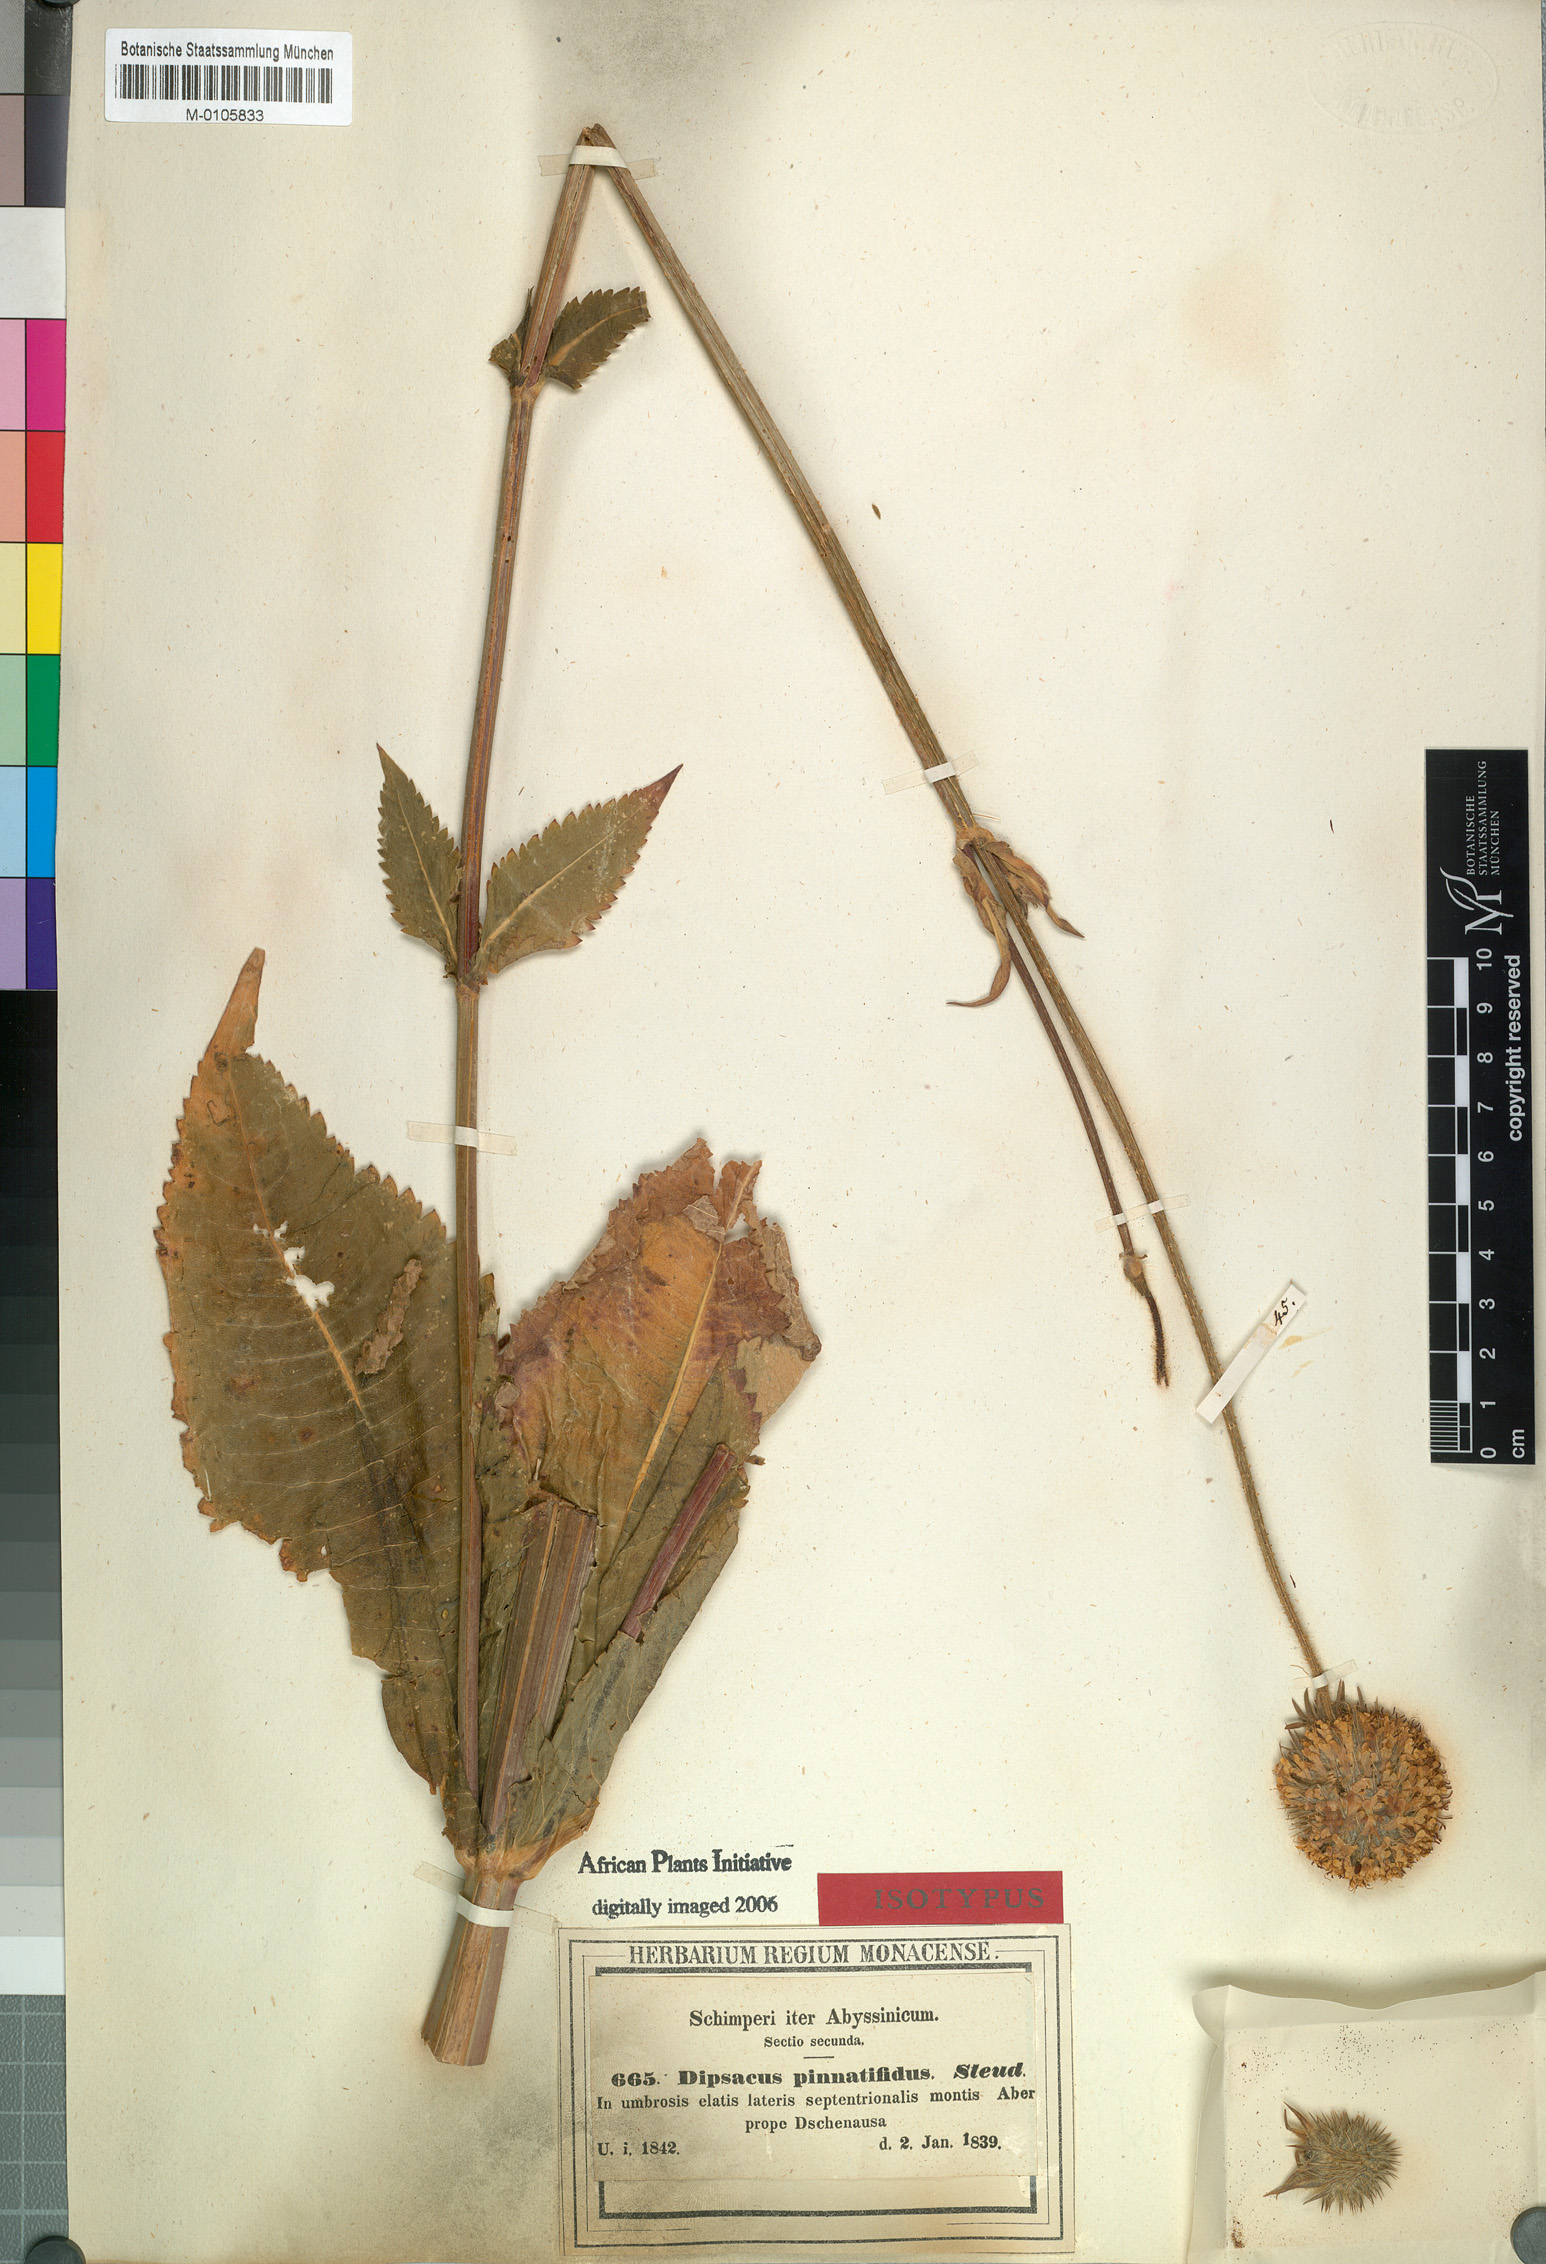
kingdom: Plantae
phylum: Tracheophyta
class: Magnoliopsida
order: Dipsacales
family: Caprifoliaceae
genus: Dipsacus
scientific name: Dipsacus pinnatifidus
